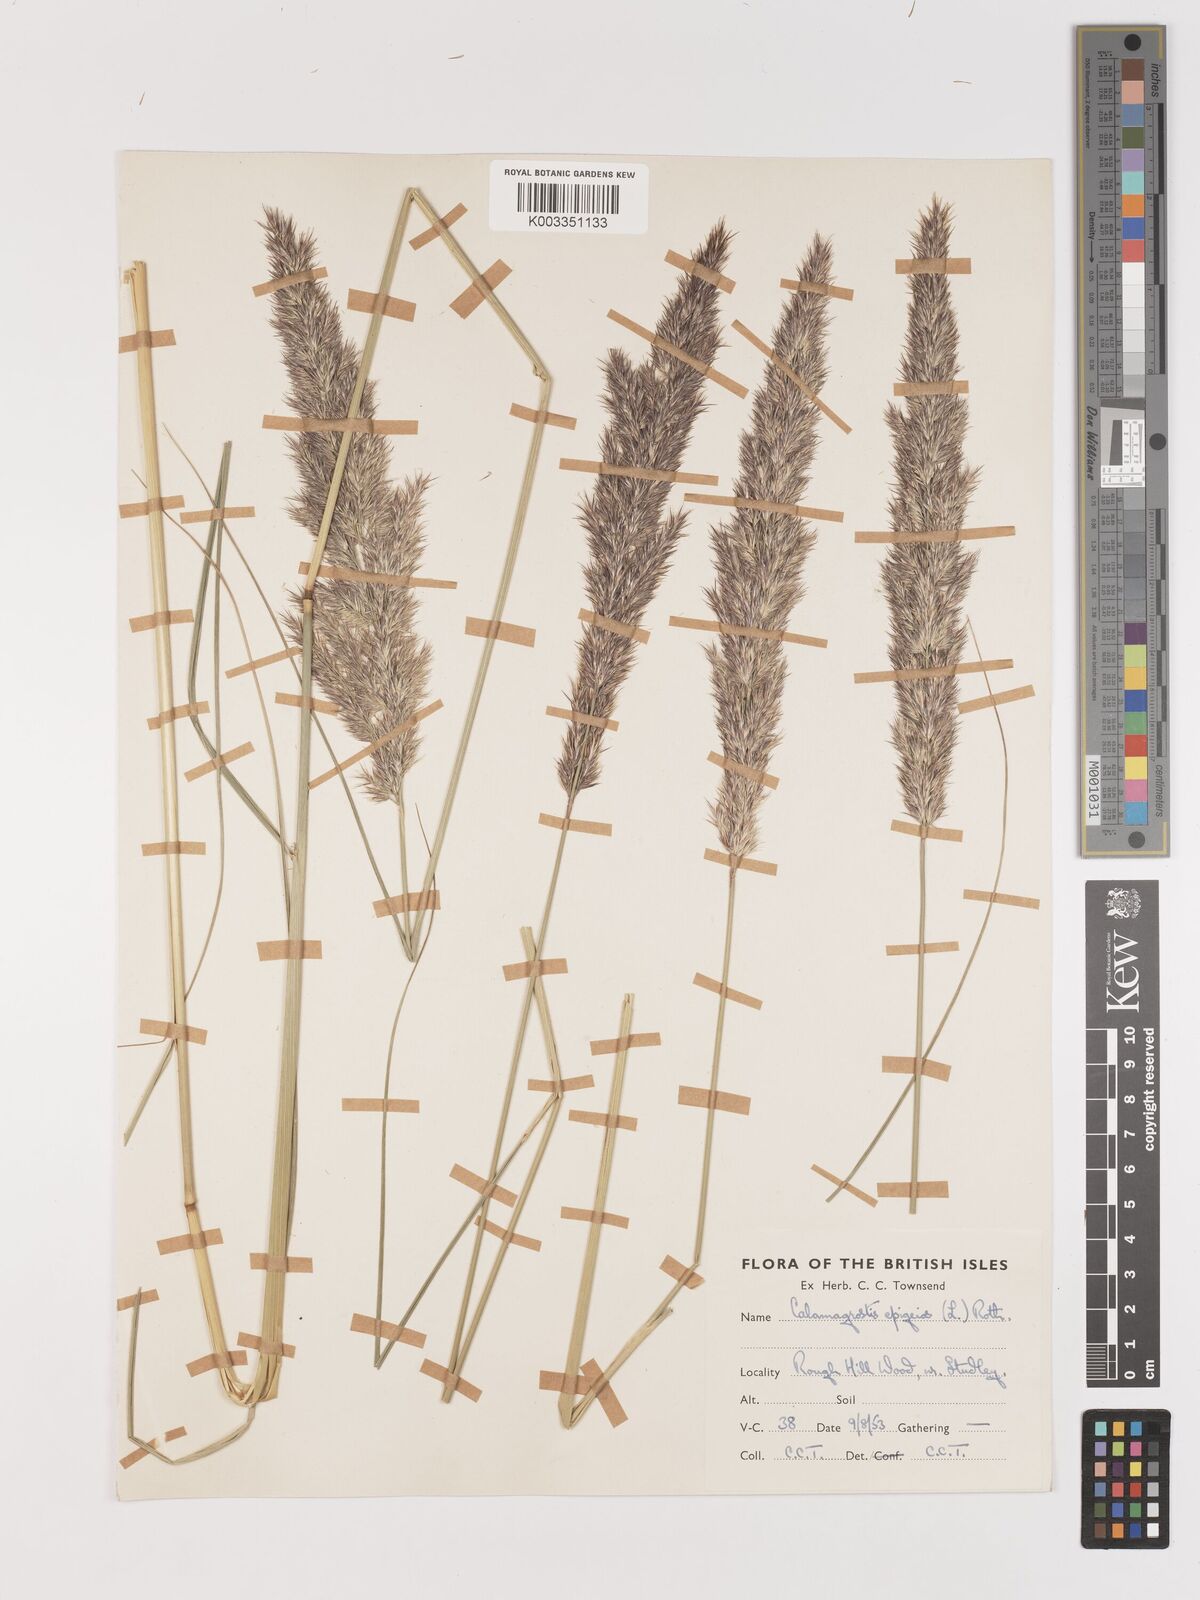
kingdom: Plantae
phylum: Tracheophyta
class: Liliopsida
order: Poales
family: Poaceae
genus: Calamagrostis
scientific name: Calamagrostis
